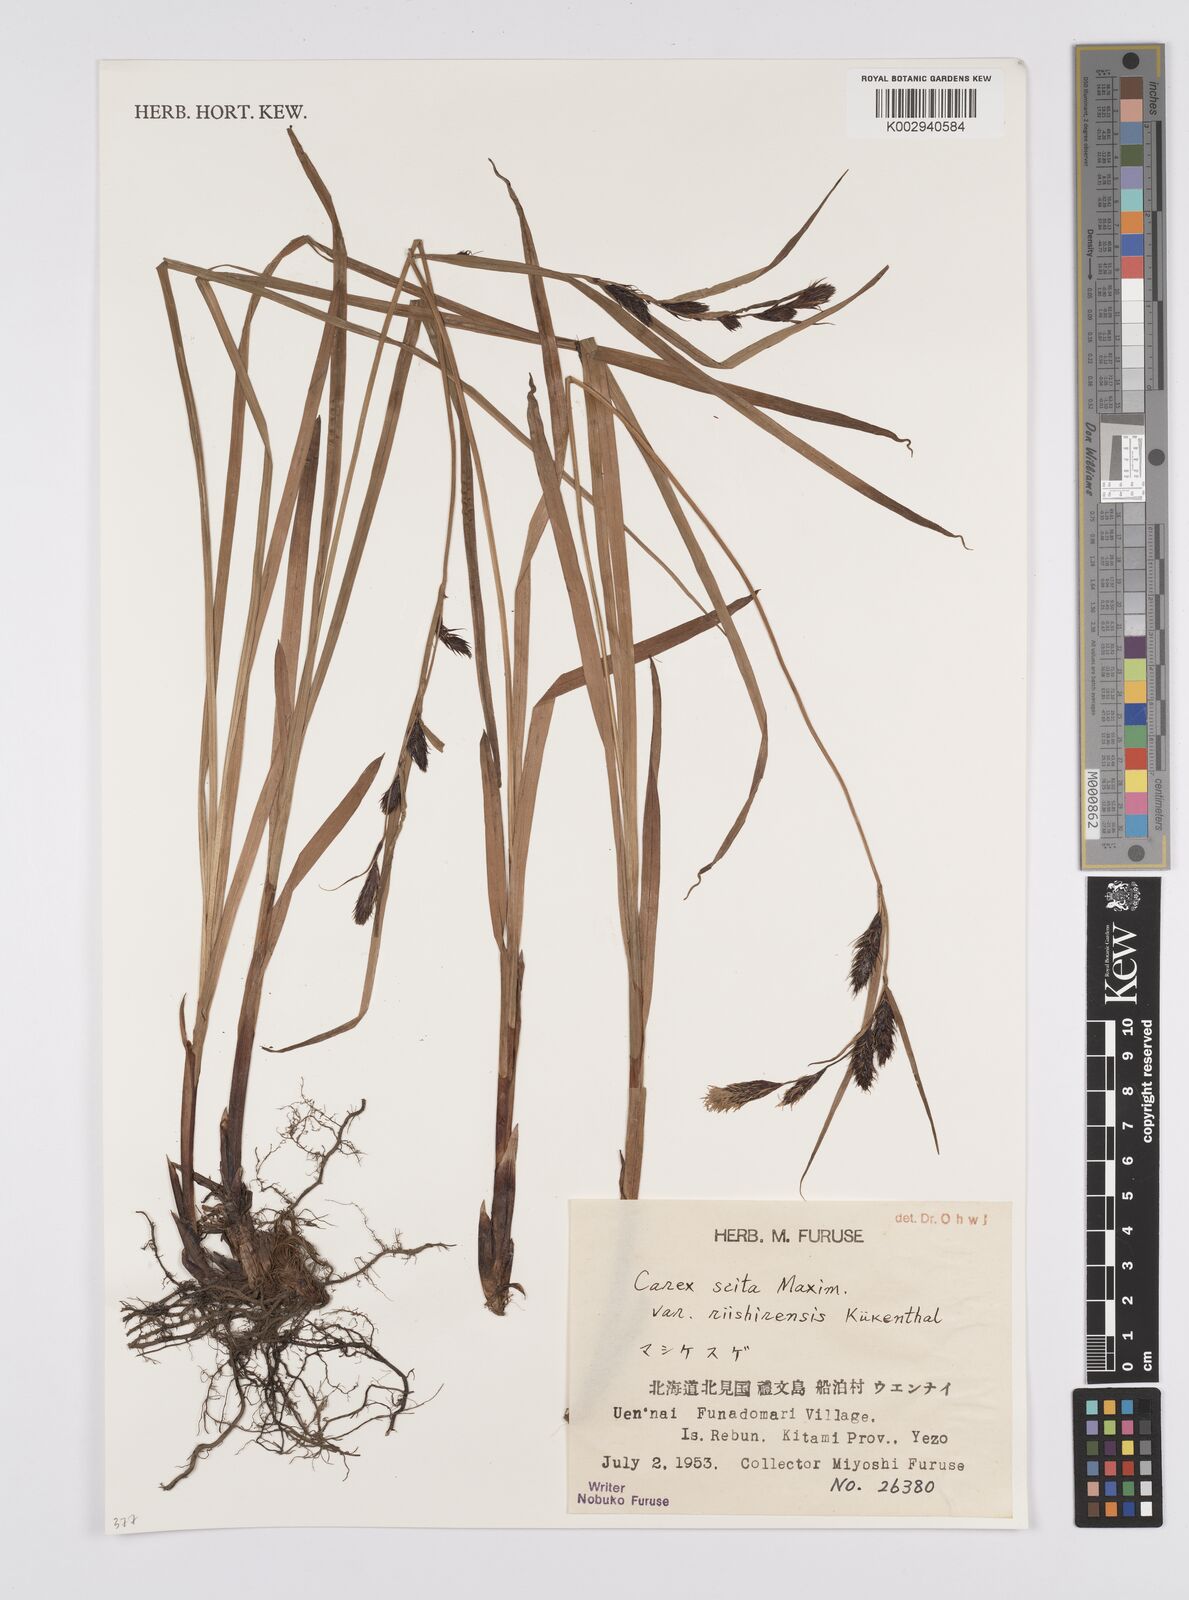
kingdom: Plantae
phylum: Tracheophyta
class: Liliopsida
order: Poales
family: Cyperaceae
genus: Carex
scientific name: Carex scita
